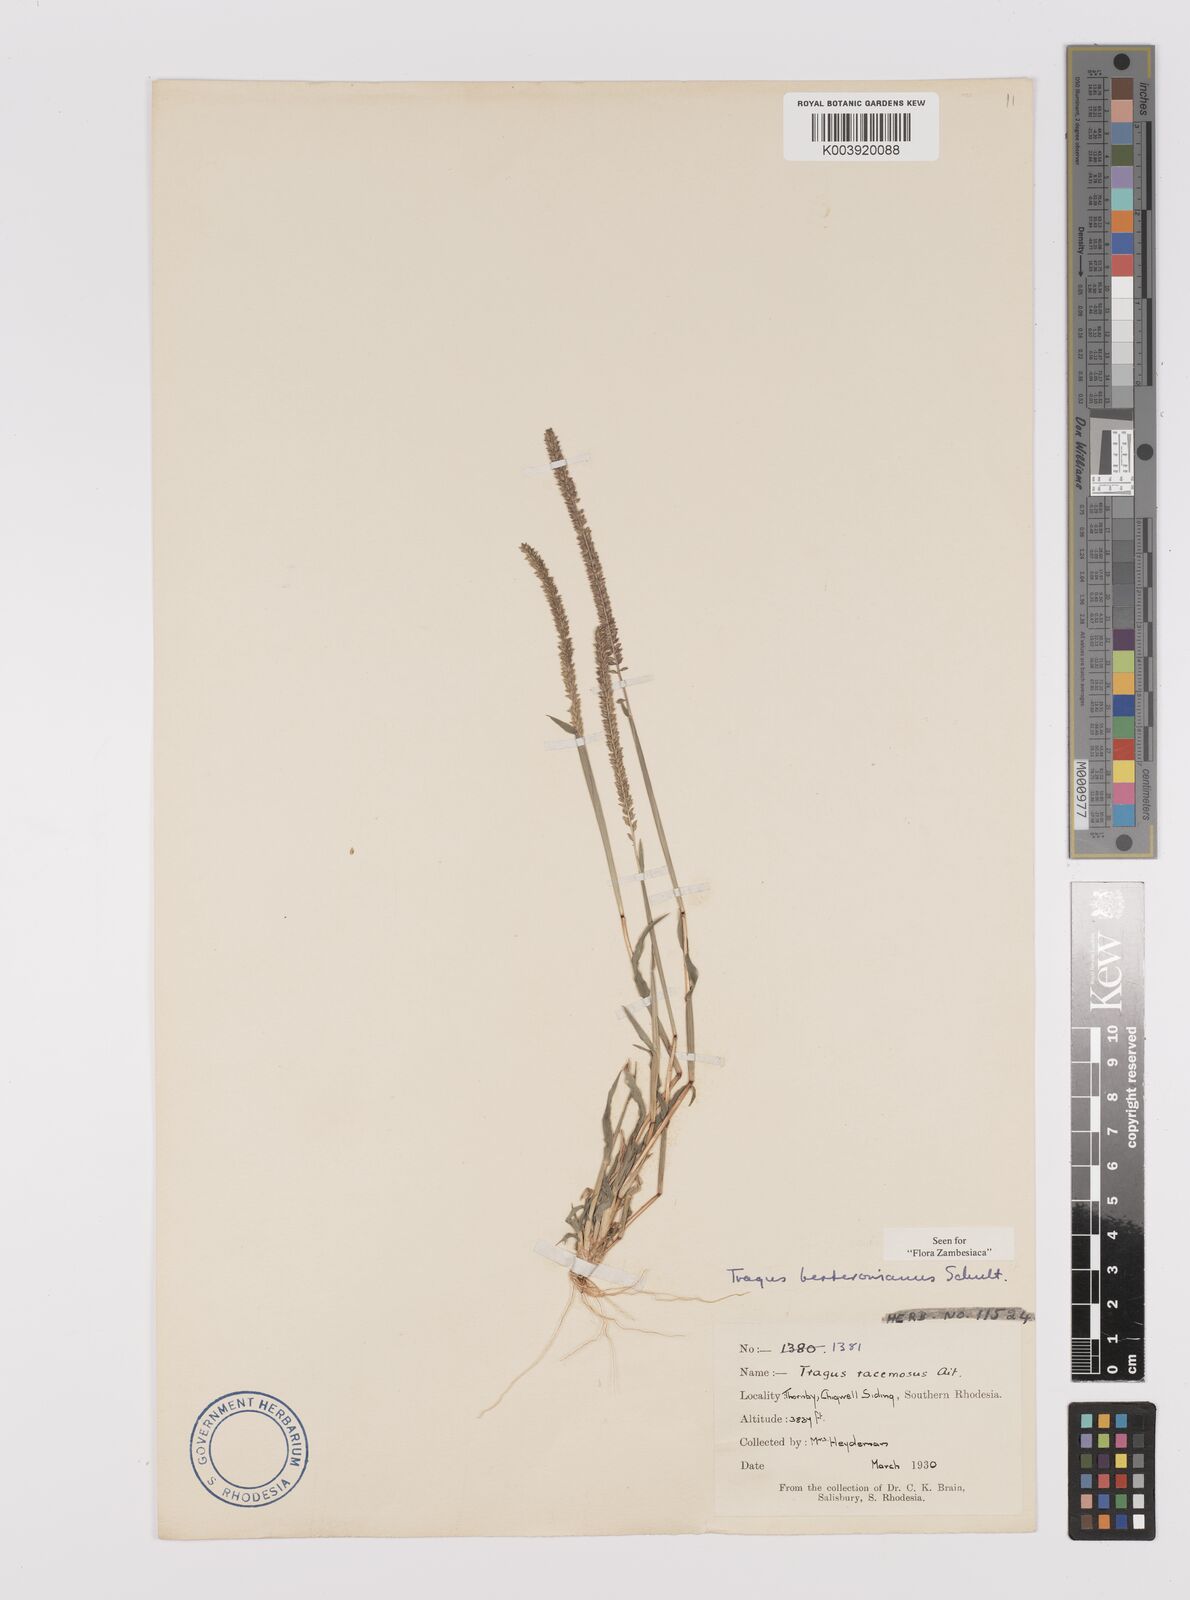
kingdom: Plantae
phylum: Tracheophyta
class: Liliopsida
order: Poales
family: Poaceae
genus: Tragus
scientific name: Tragus berteronianus
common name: African bur-grass
